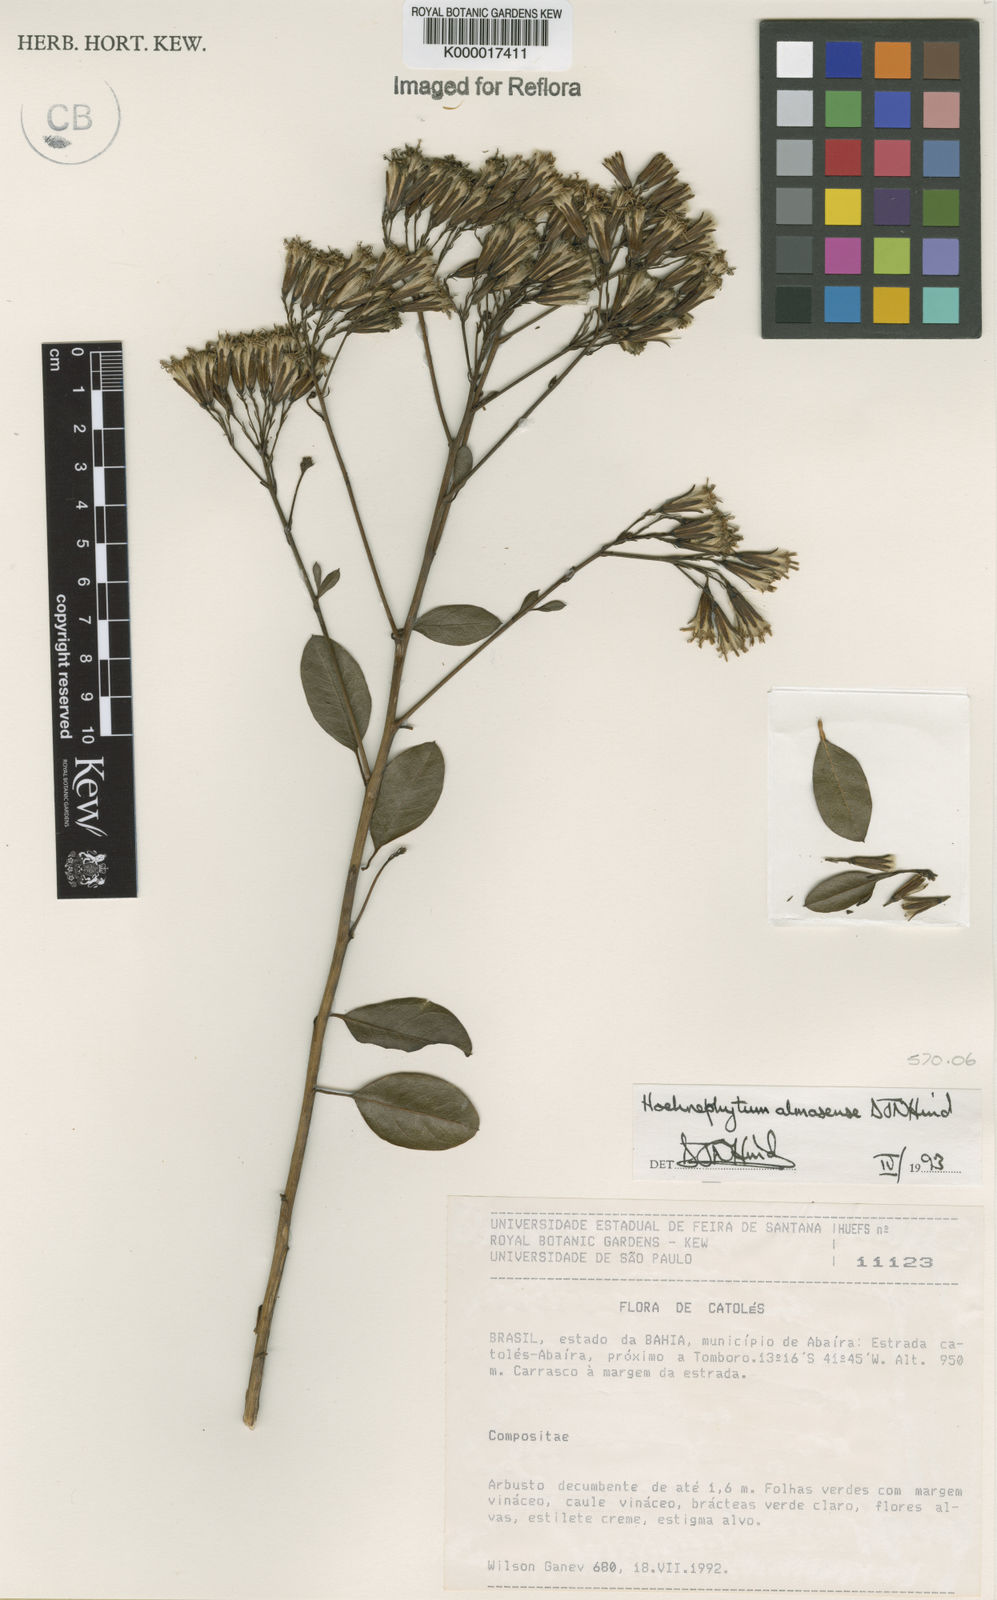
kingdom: Plantae
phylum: Tracheophyta
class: Magnoliopsida
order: Asterales
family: Asteraceae
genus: Hoehnephytum
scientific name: Hoehnephytum almasense
